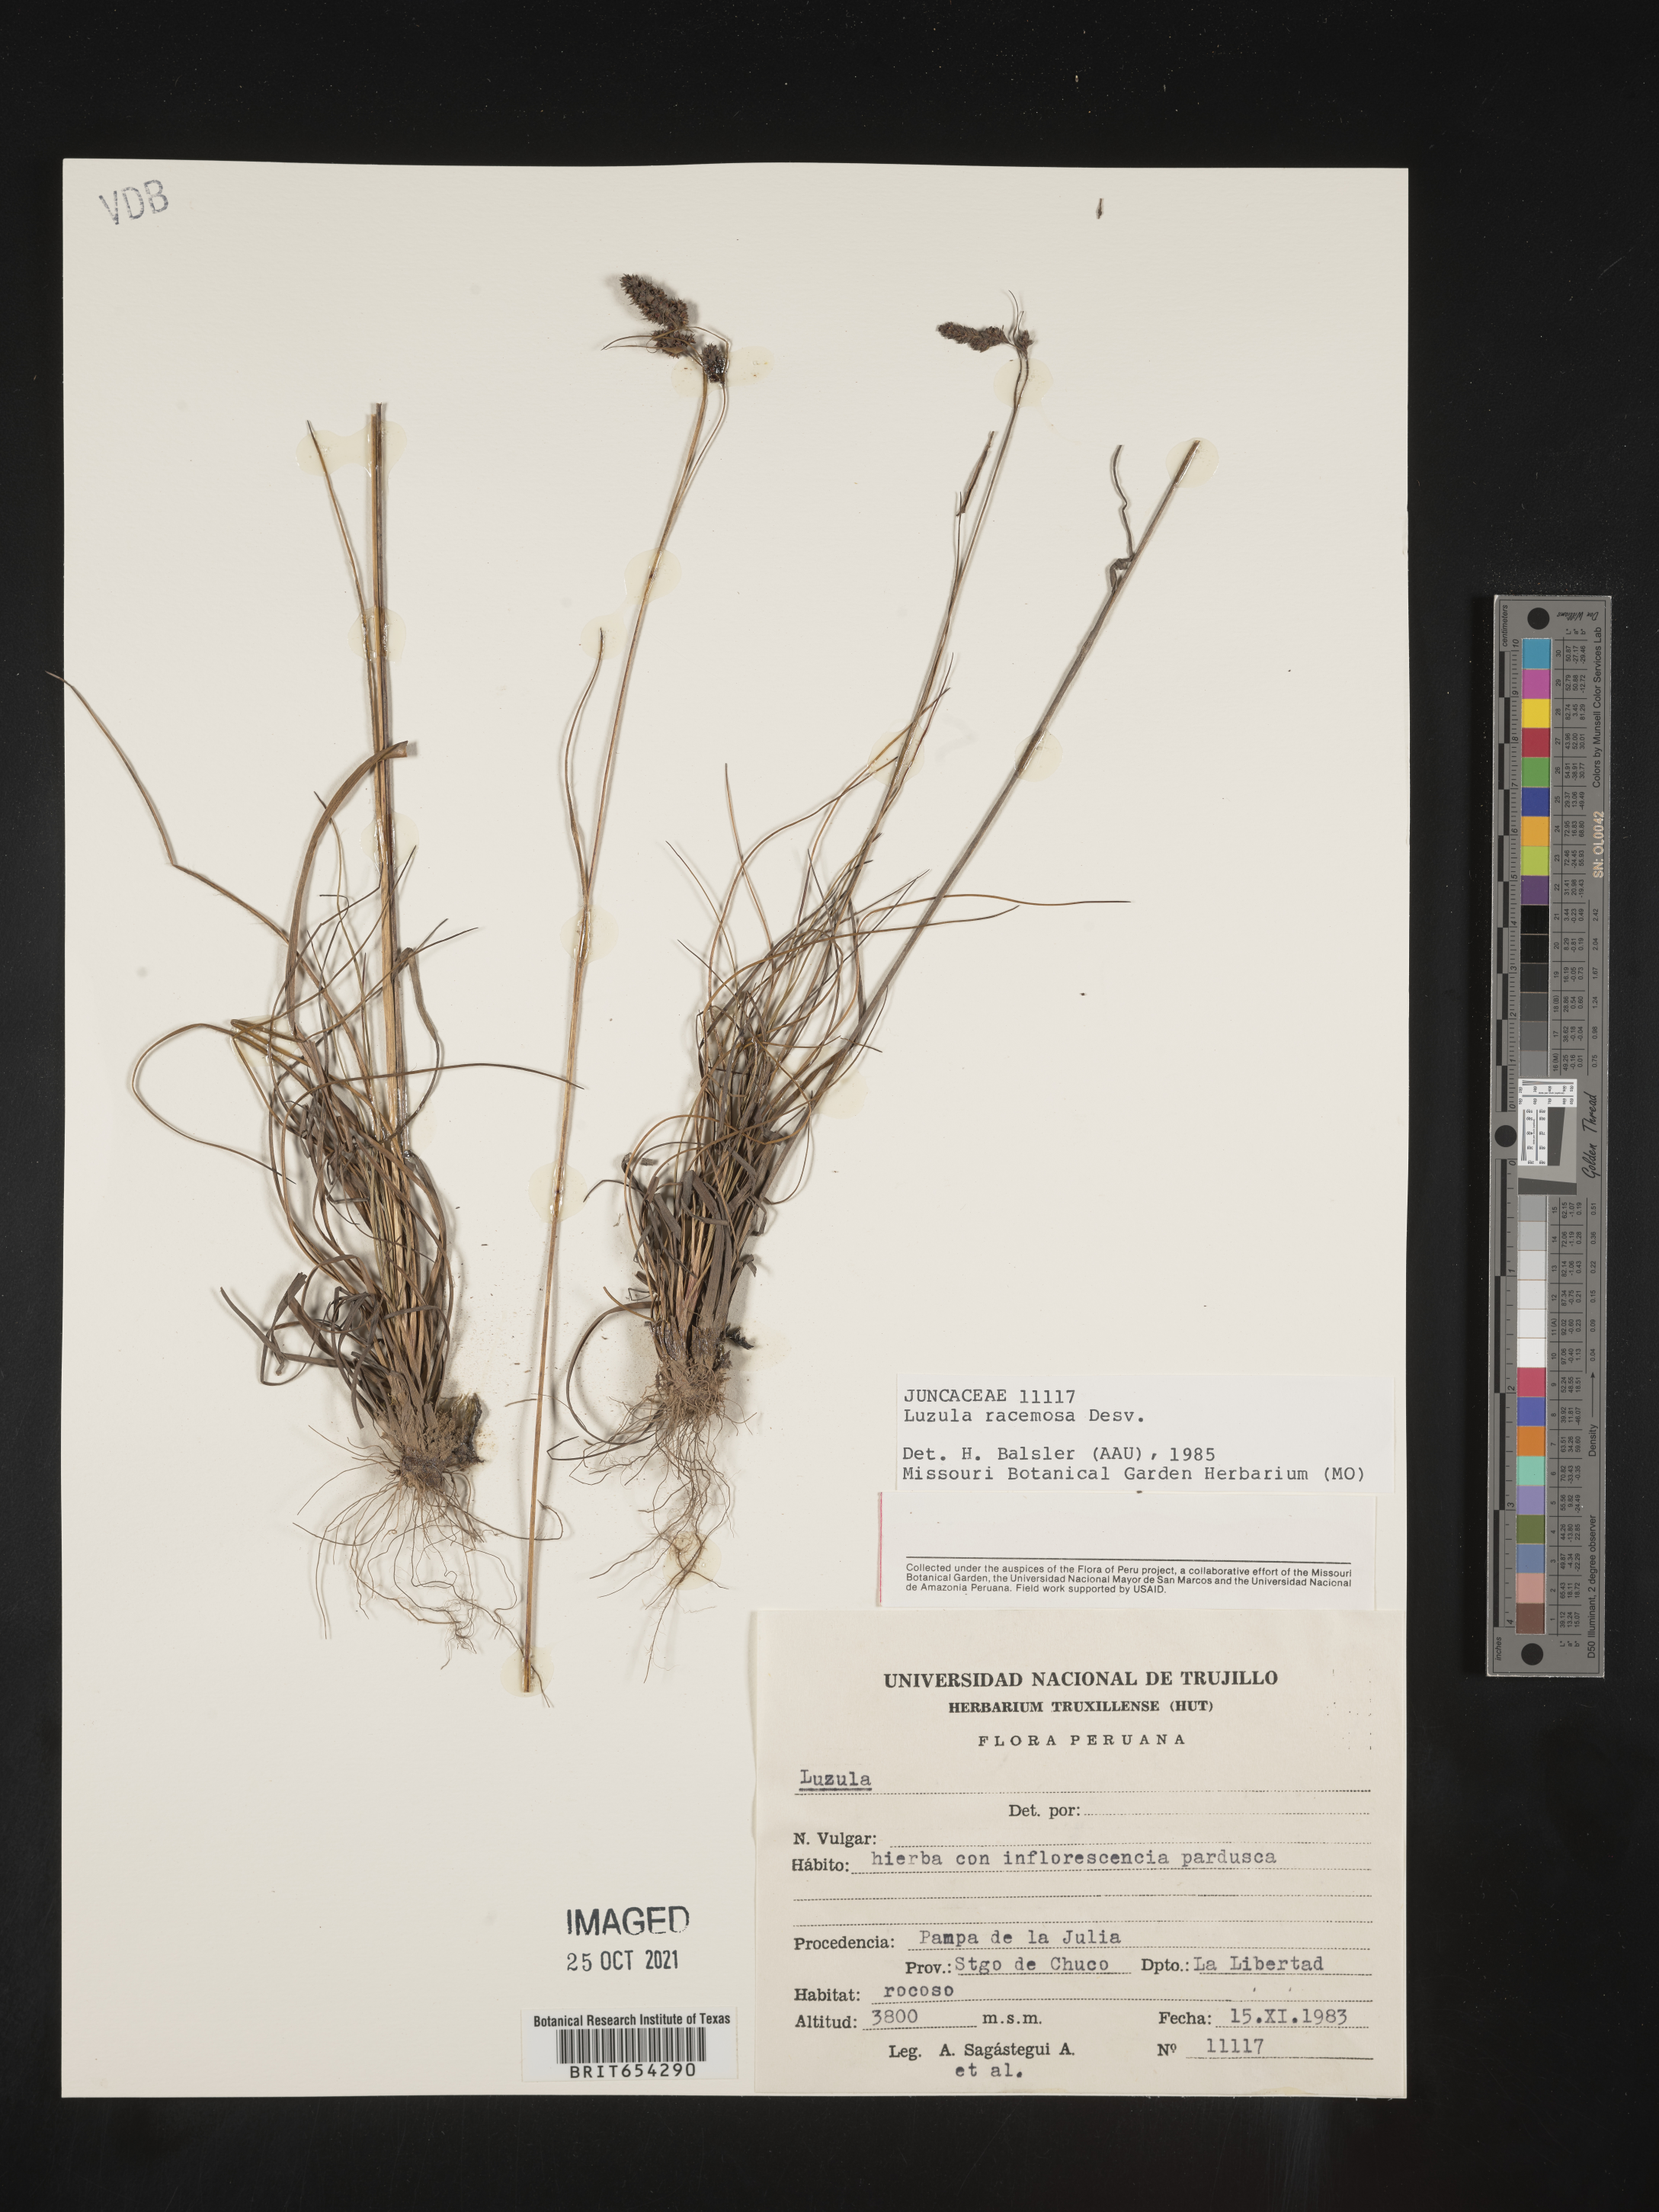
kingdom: Plantae
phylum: Tracheophyta
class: Liliopsida
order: Poales
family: Juncaceae
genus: Luzula
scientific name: Luzula
